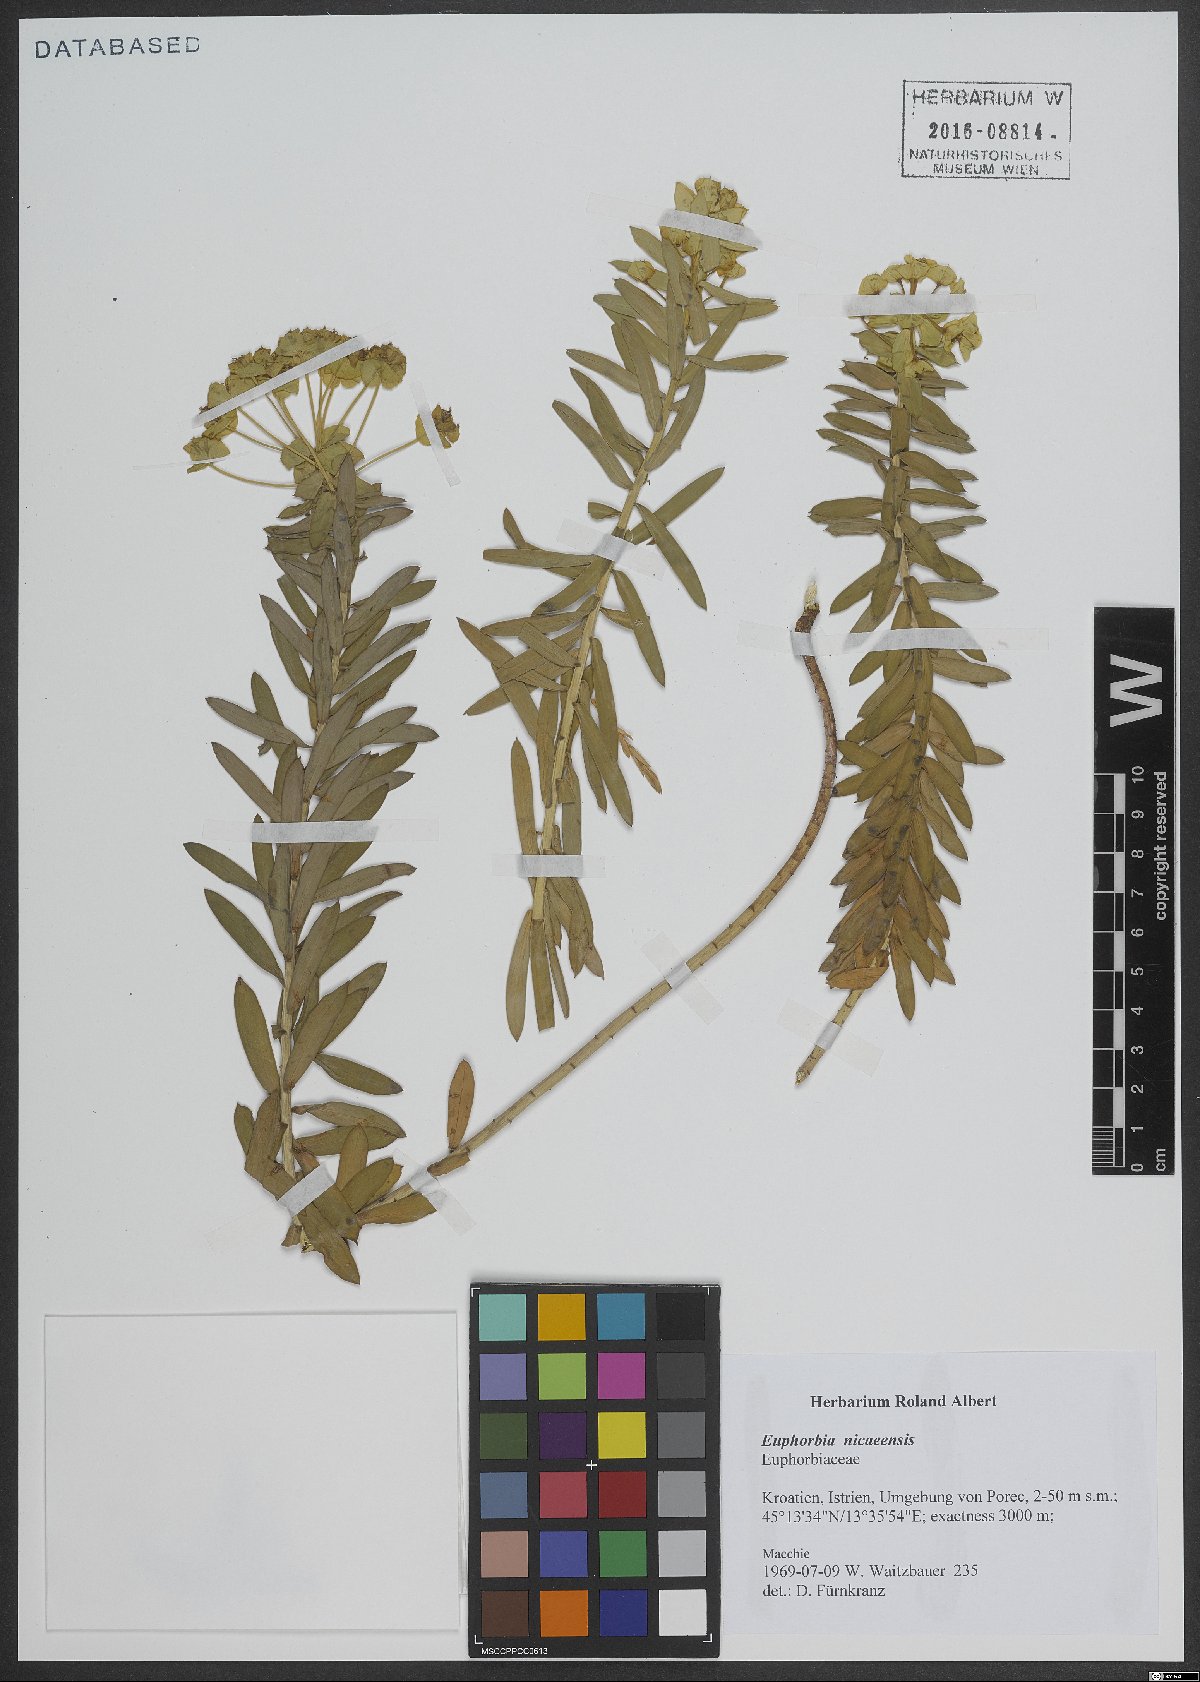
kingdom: Plantae
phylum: Tracheophyta
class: Magnoliopsida
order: Malpighiales
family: Euphorbiaceae
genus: Euphorbia
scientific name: Euphorbia nicaeensis
